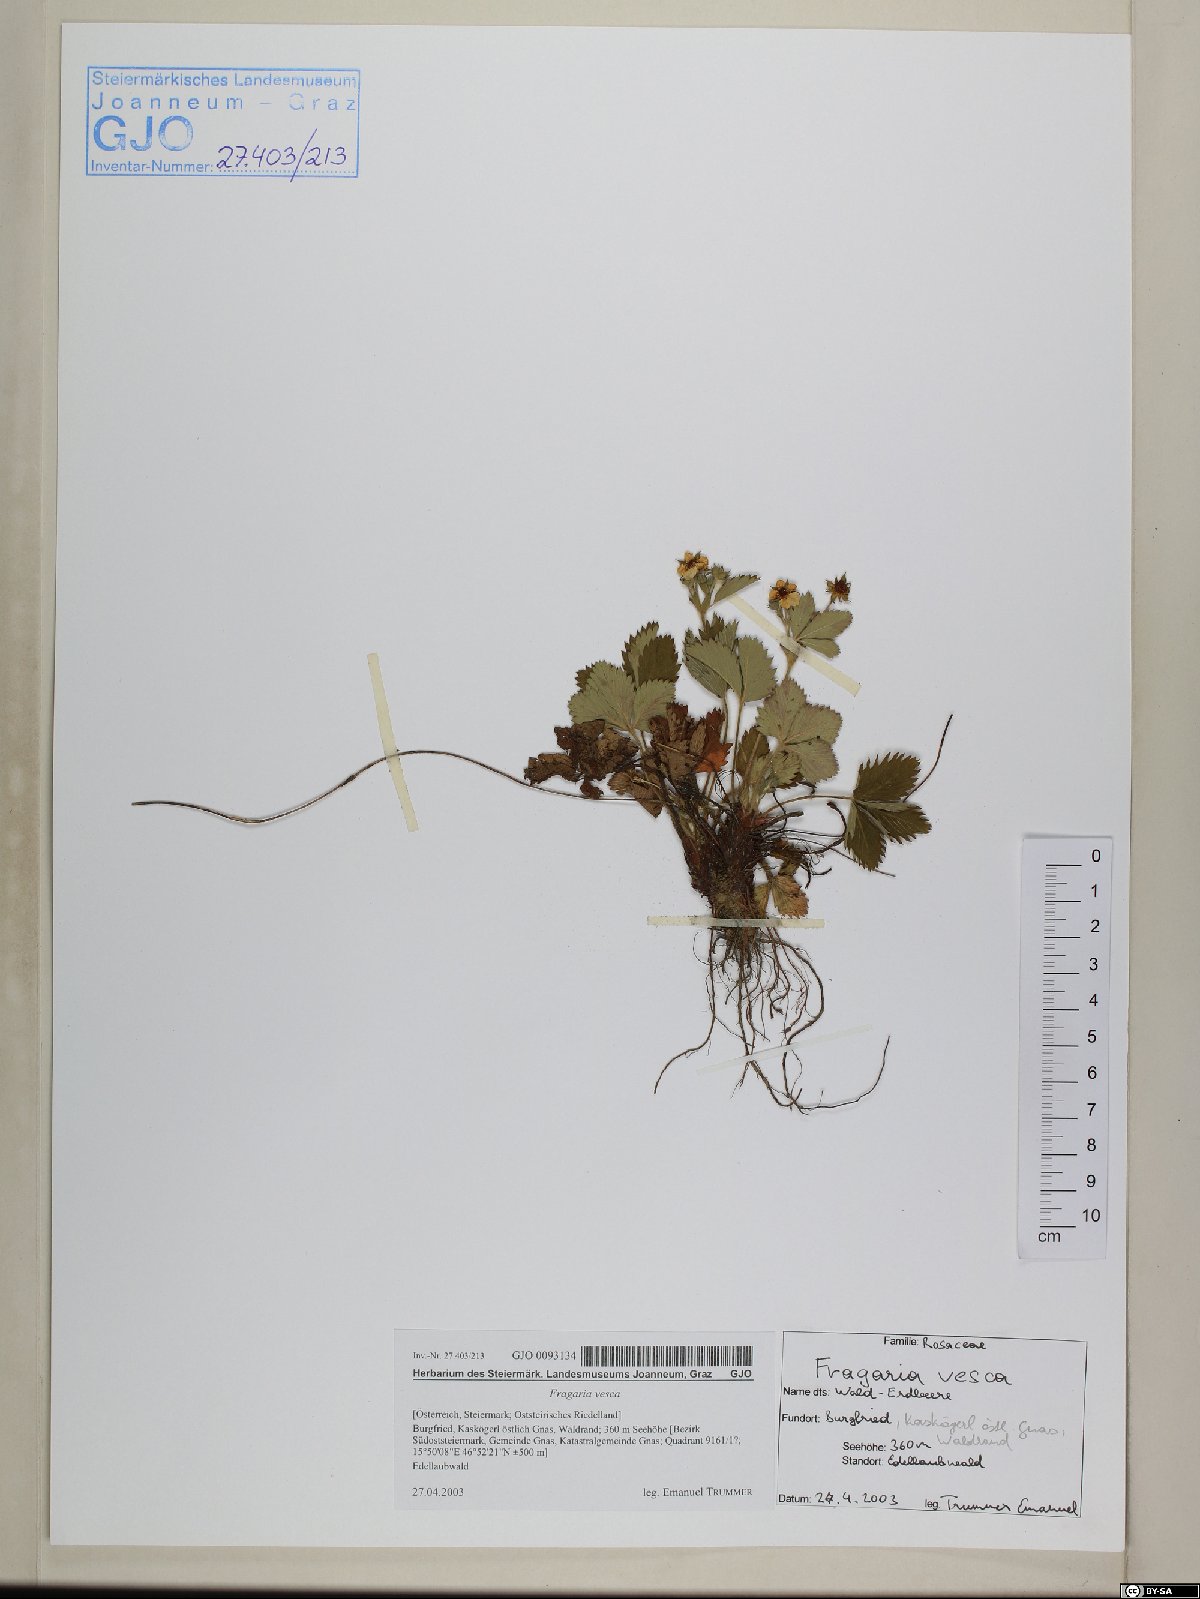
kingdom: Plantae
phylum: Tracheophyta
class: Magnoliopsida
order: Rosales
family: Rosaceae
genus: Fragaria
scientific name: Fragaria vesca
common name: Wild strawberry
